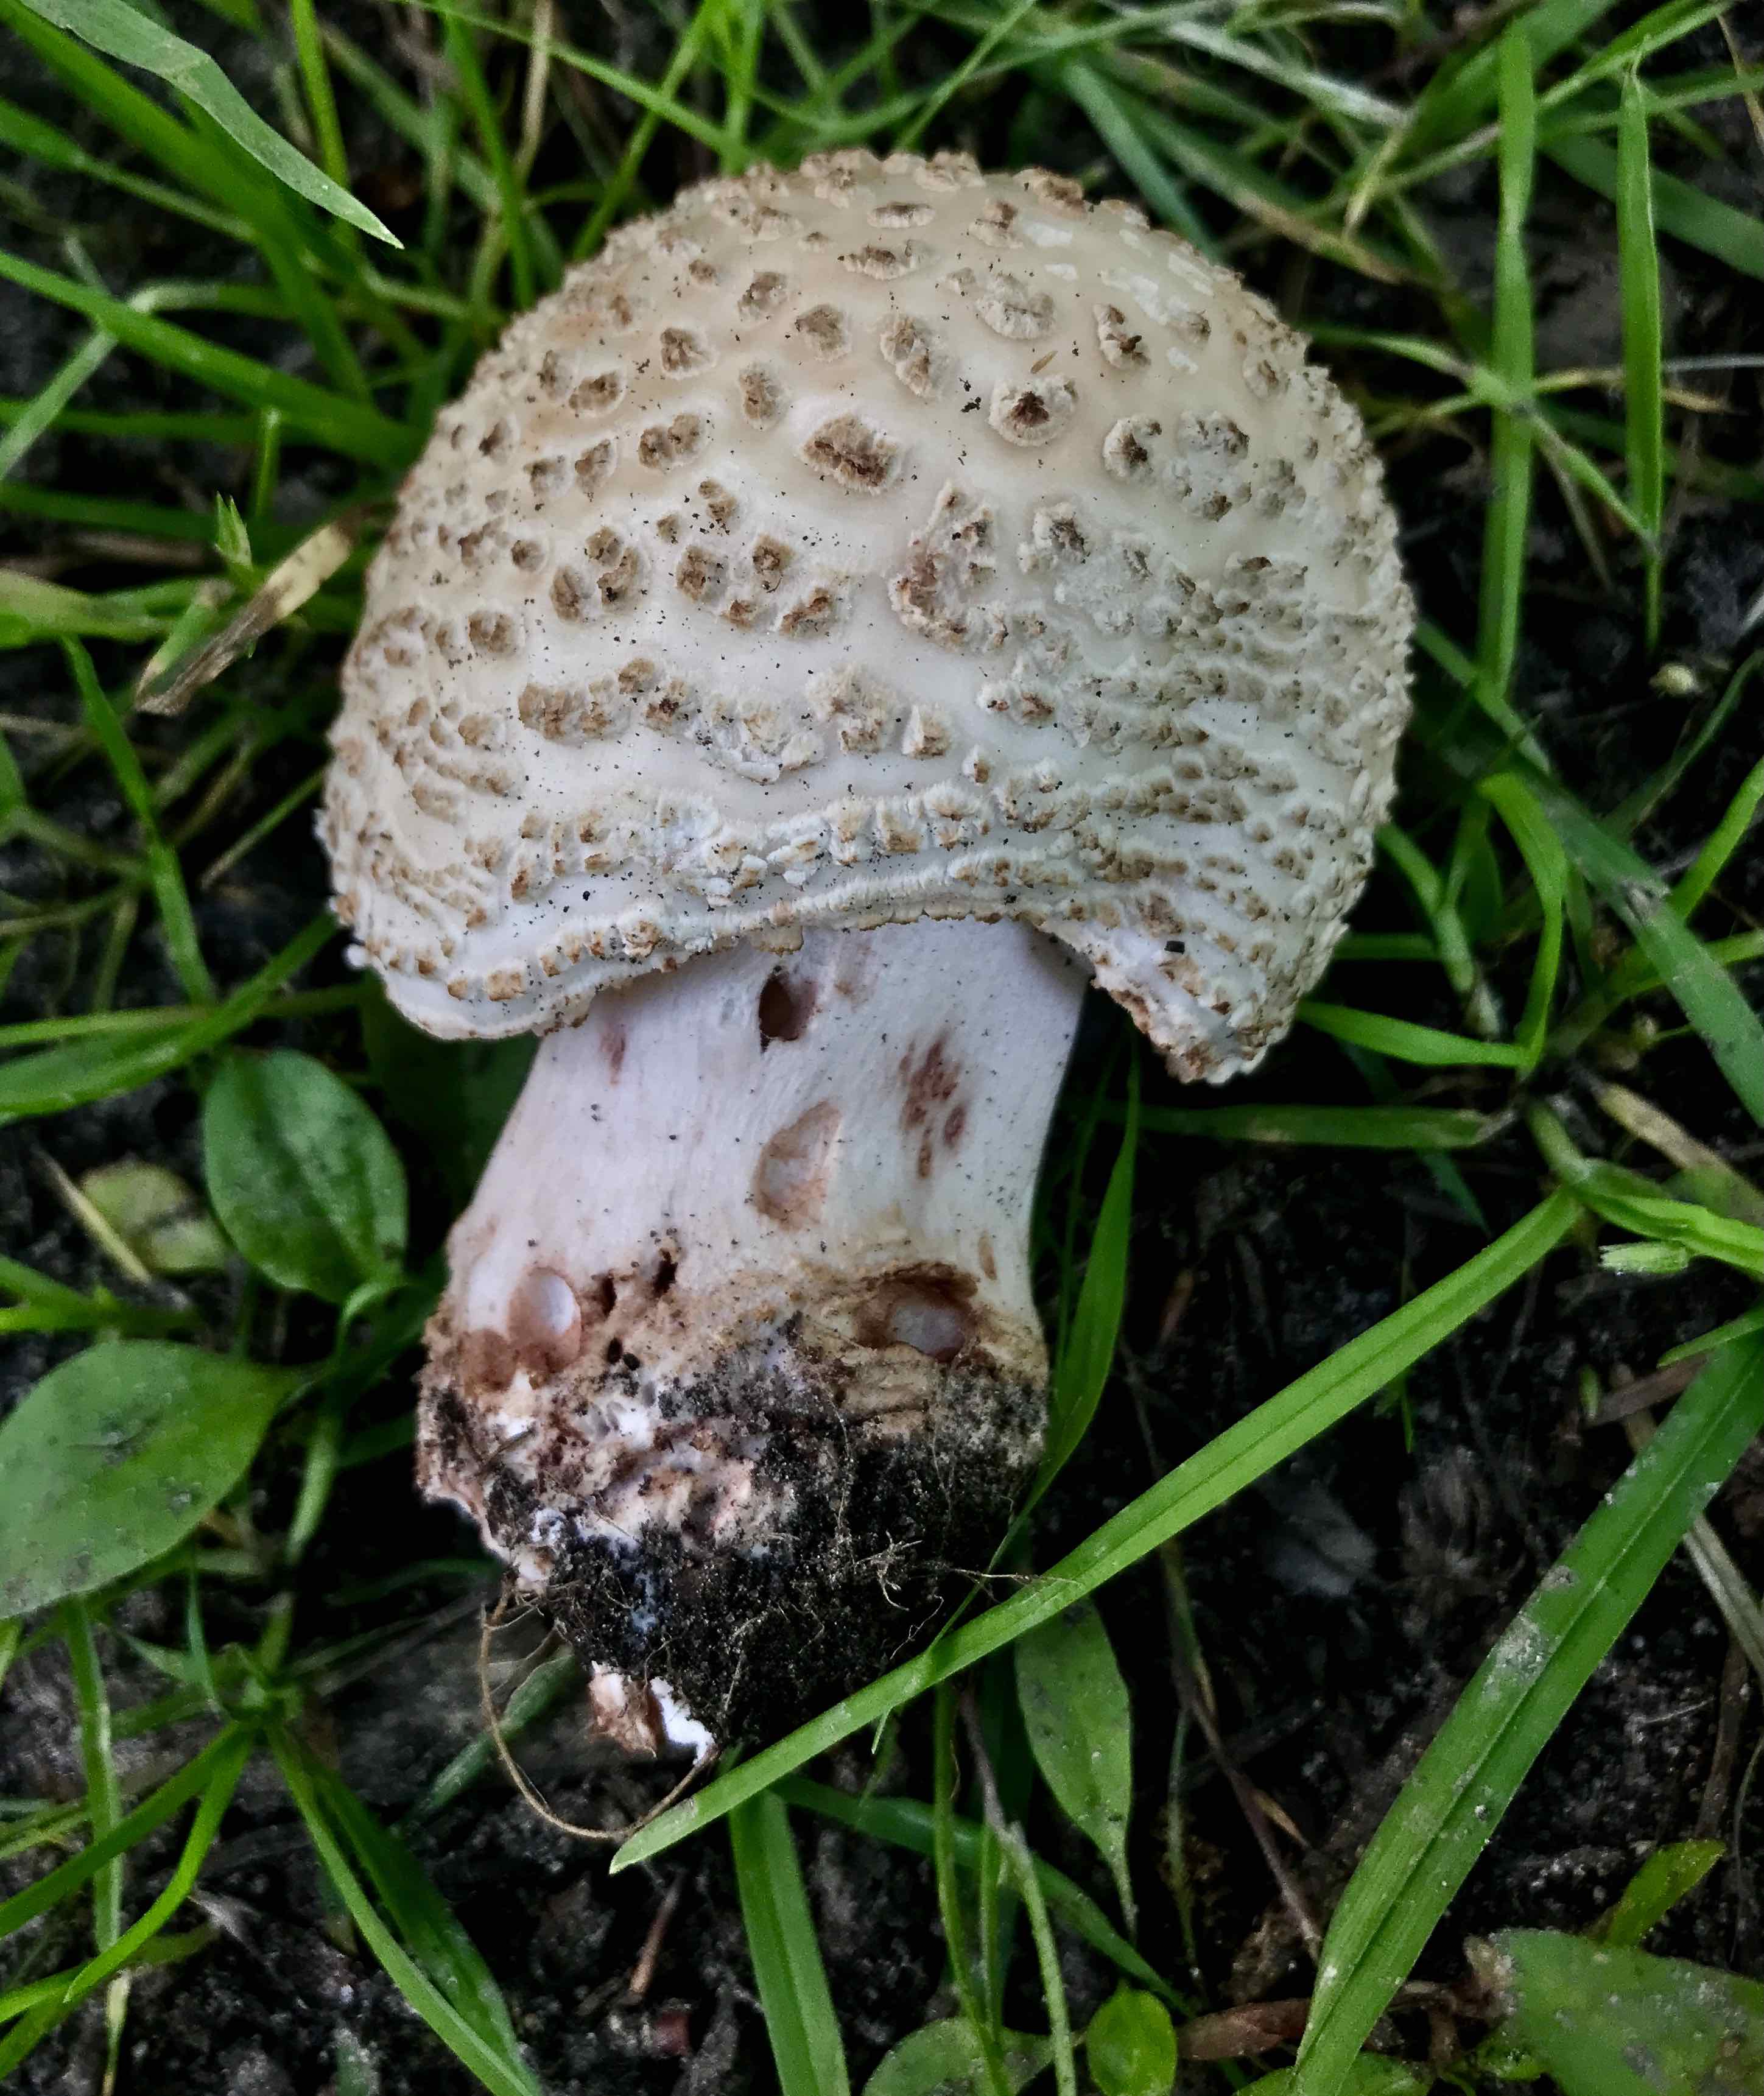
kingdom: Fungi
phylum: Basidiomycota
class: Agaricomycetes
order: Agaricales
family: Amanitaceae
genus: Amanita
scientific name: Amanita rubescens
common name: rødmende fluesvamp
